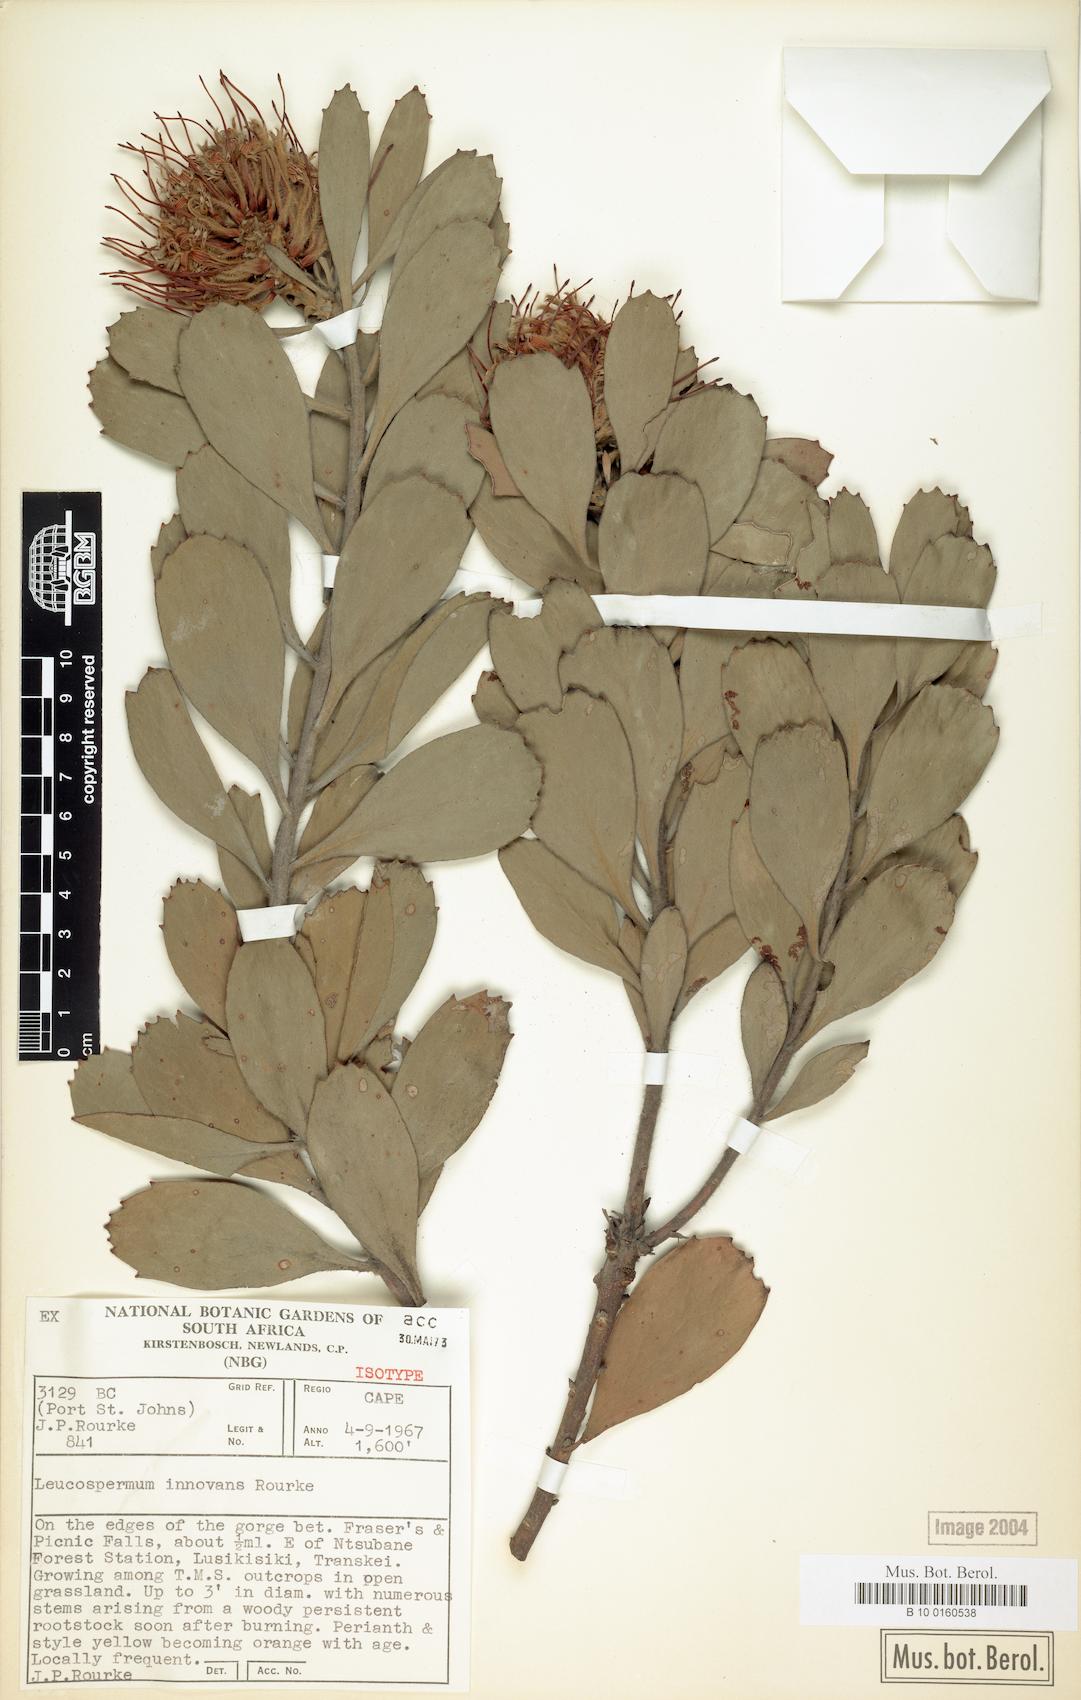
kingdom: Plantae
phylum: Tracheophyta
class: Magnoliopsida
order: Proteales
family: Proteaceae
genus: Leucospermum
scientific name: Leucospermum innovans
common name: Pondoland pincushion
